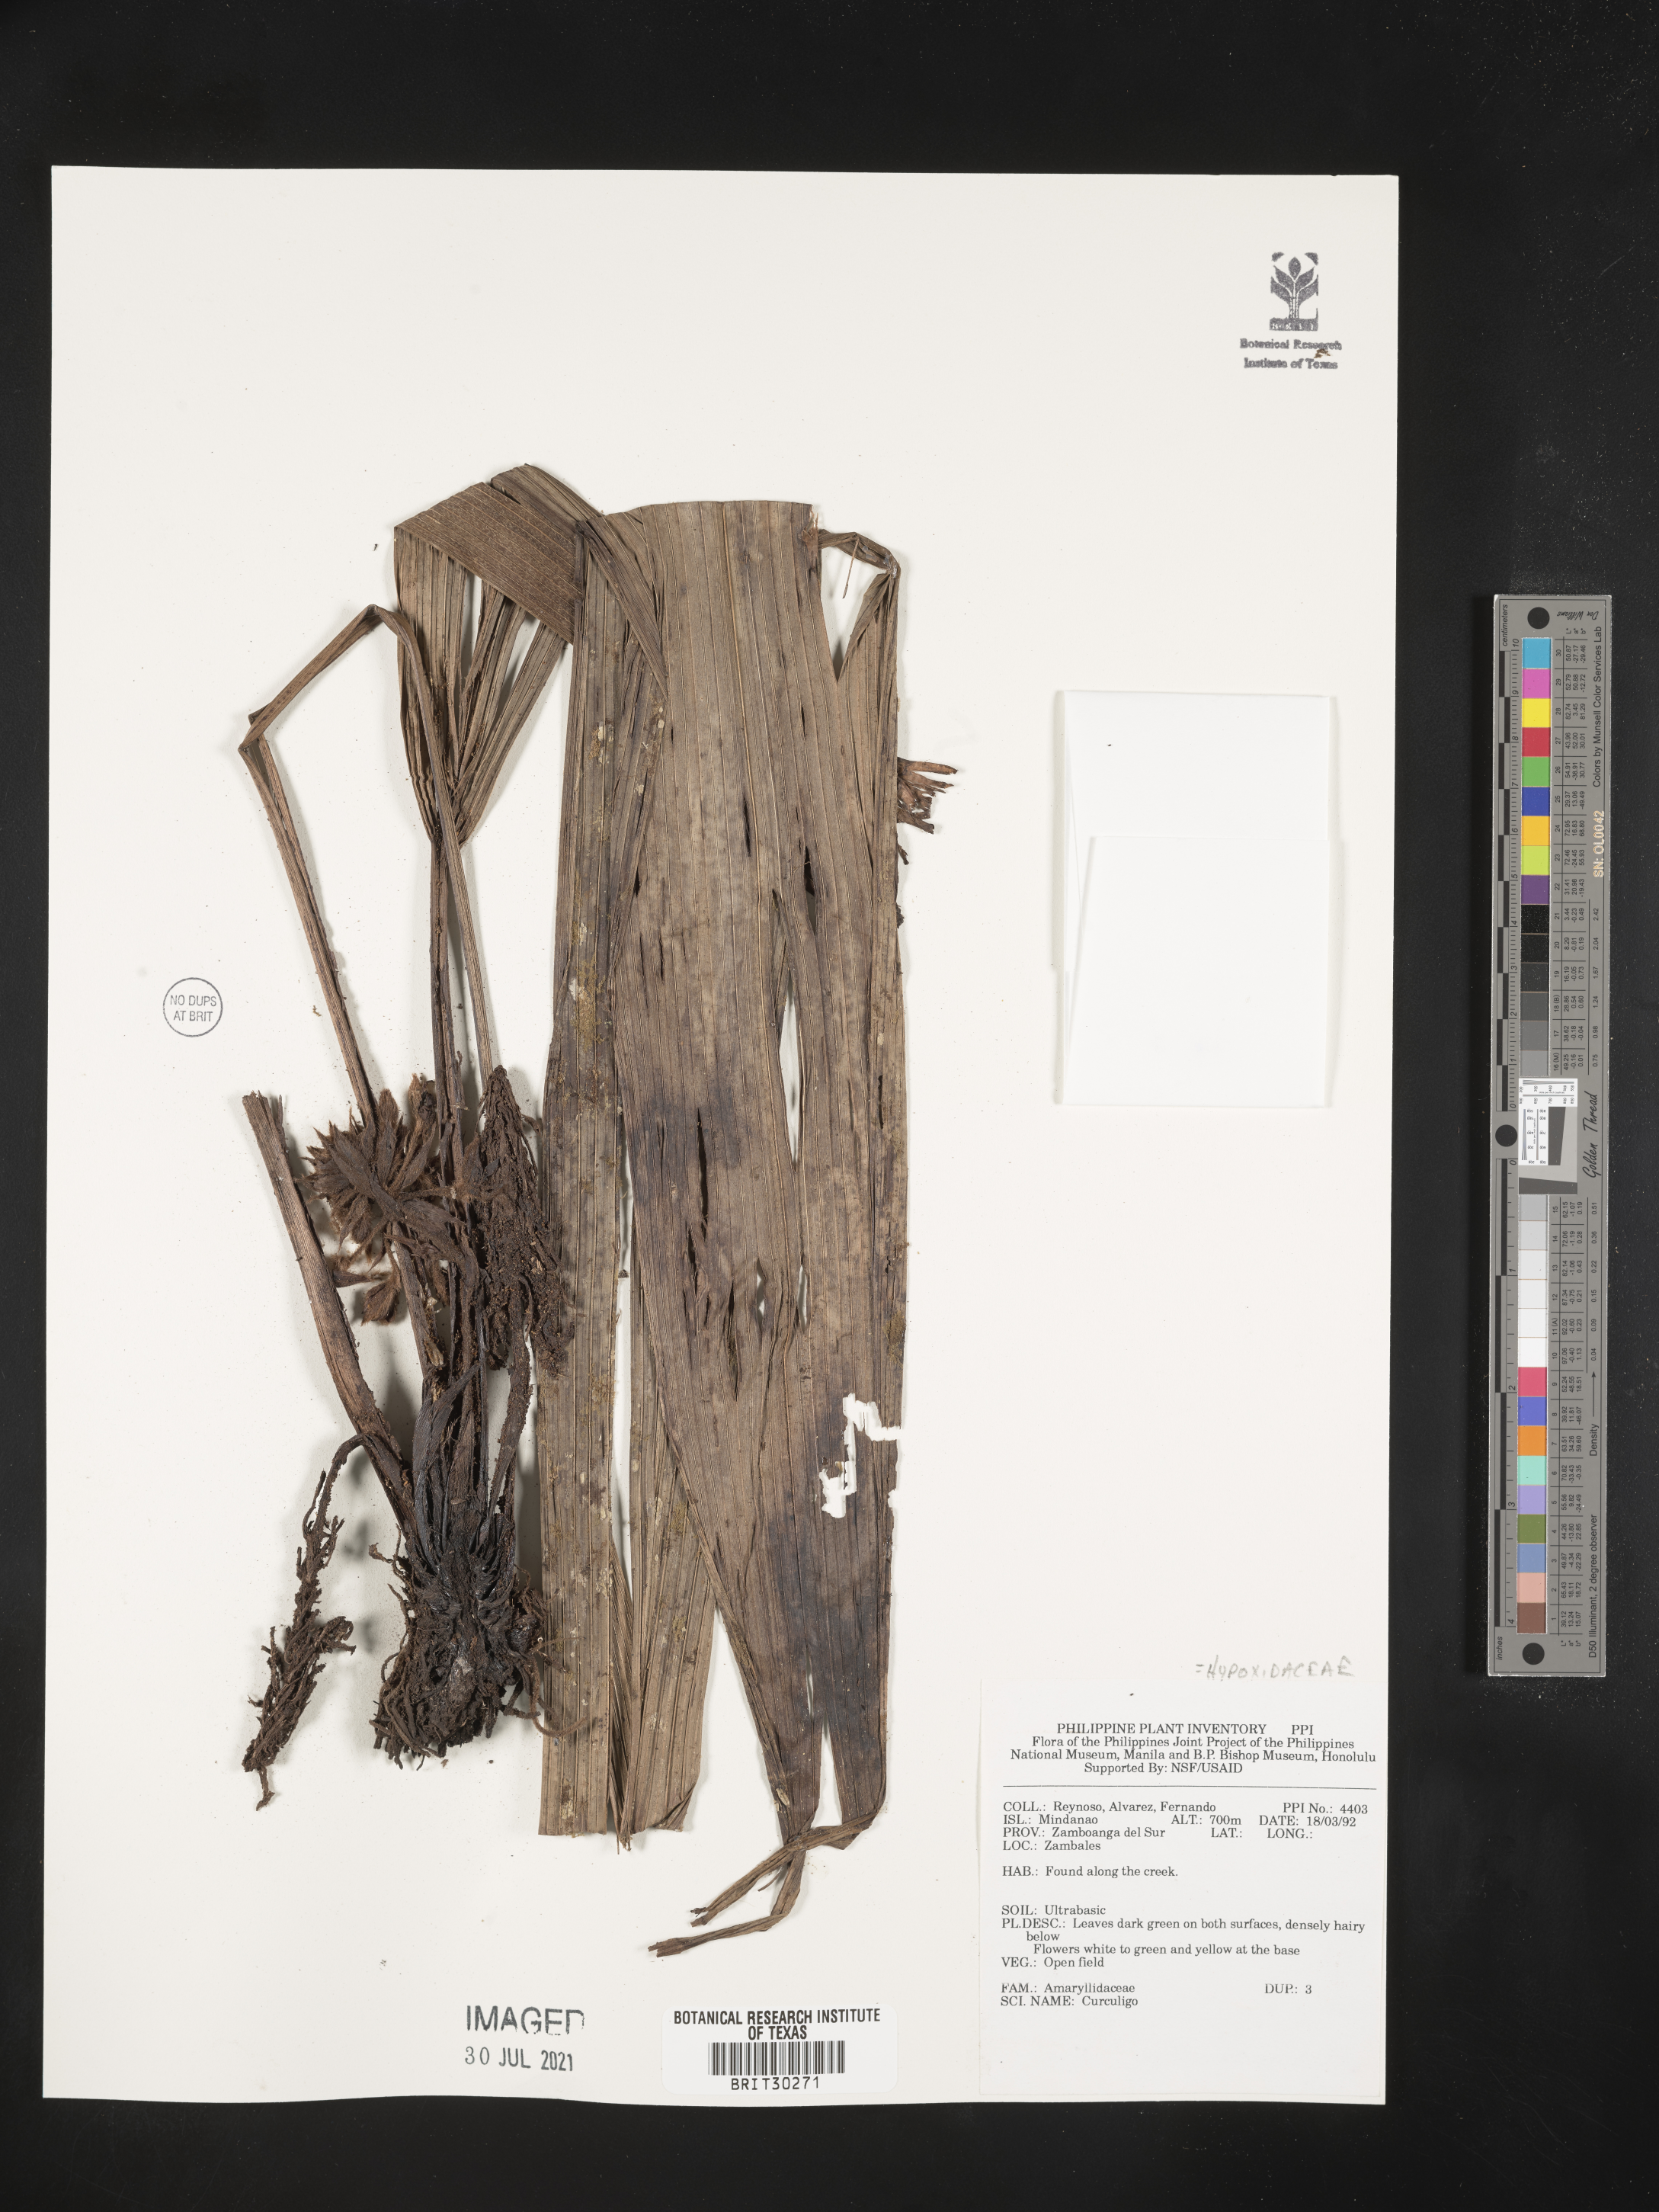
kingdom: Plantae
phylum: Tracheophyta
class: Liliopsida
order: Asparagales
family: Hypoxidaceae
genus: Curculigo
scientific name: Curculigo
